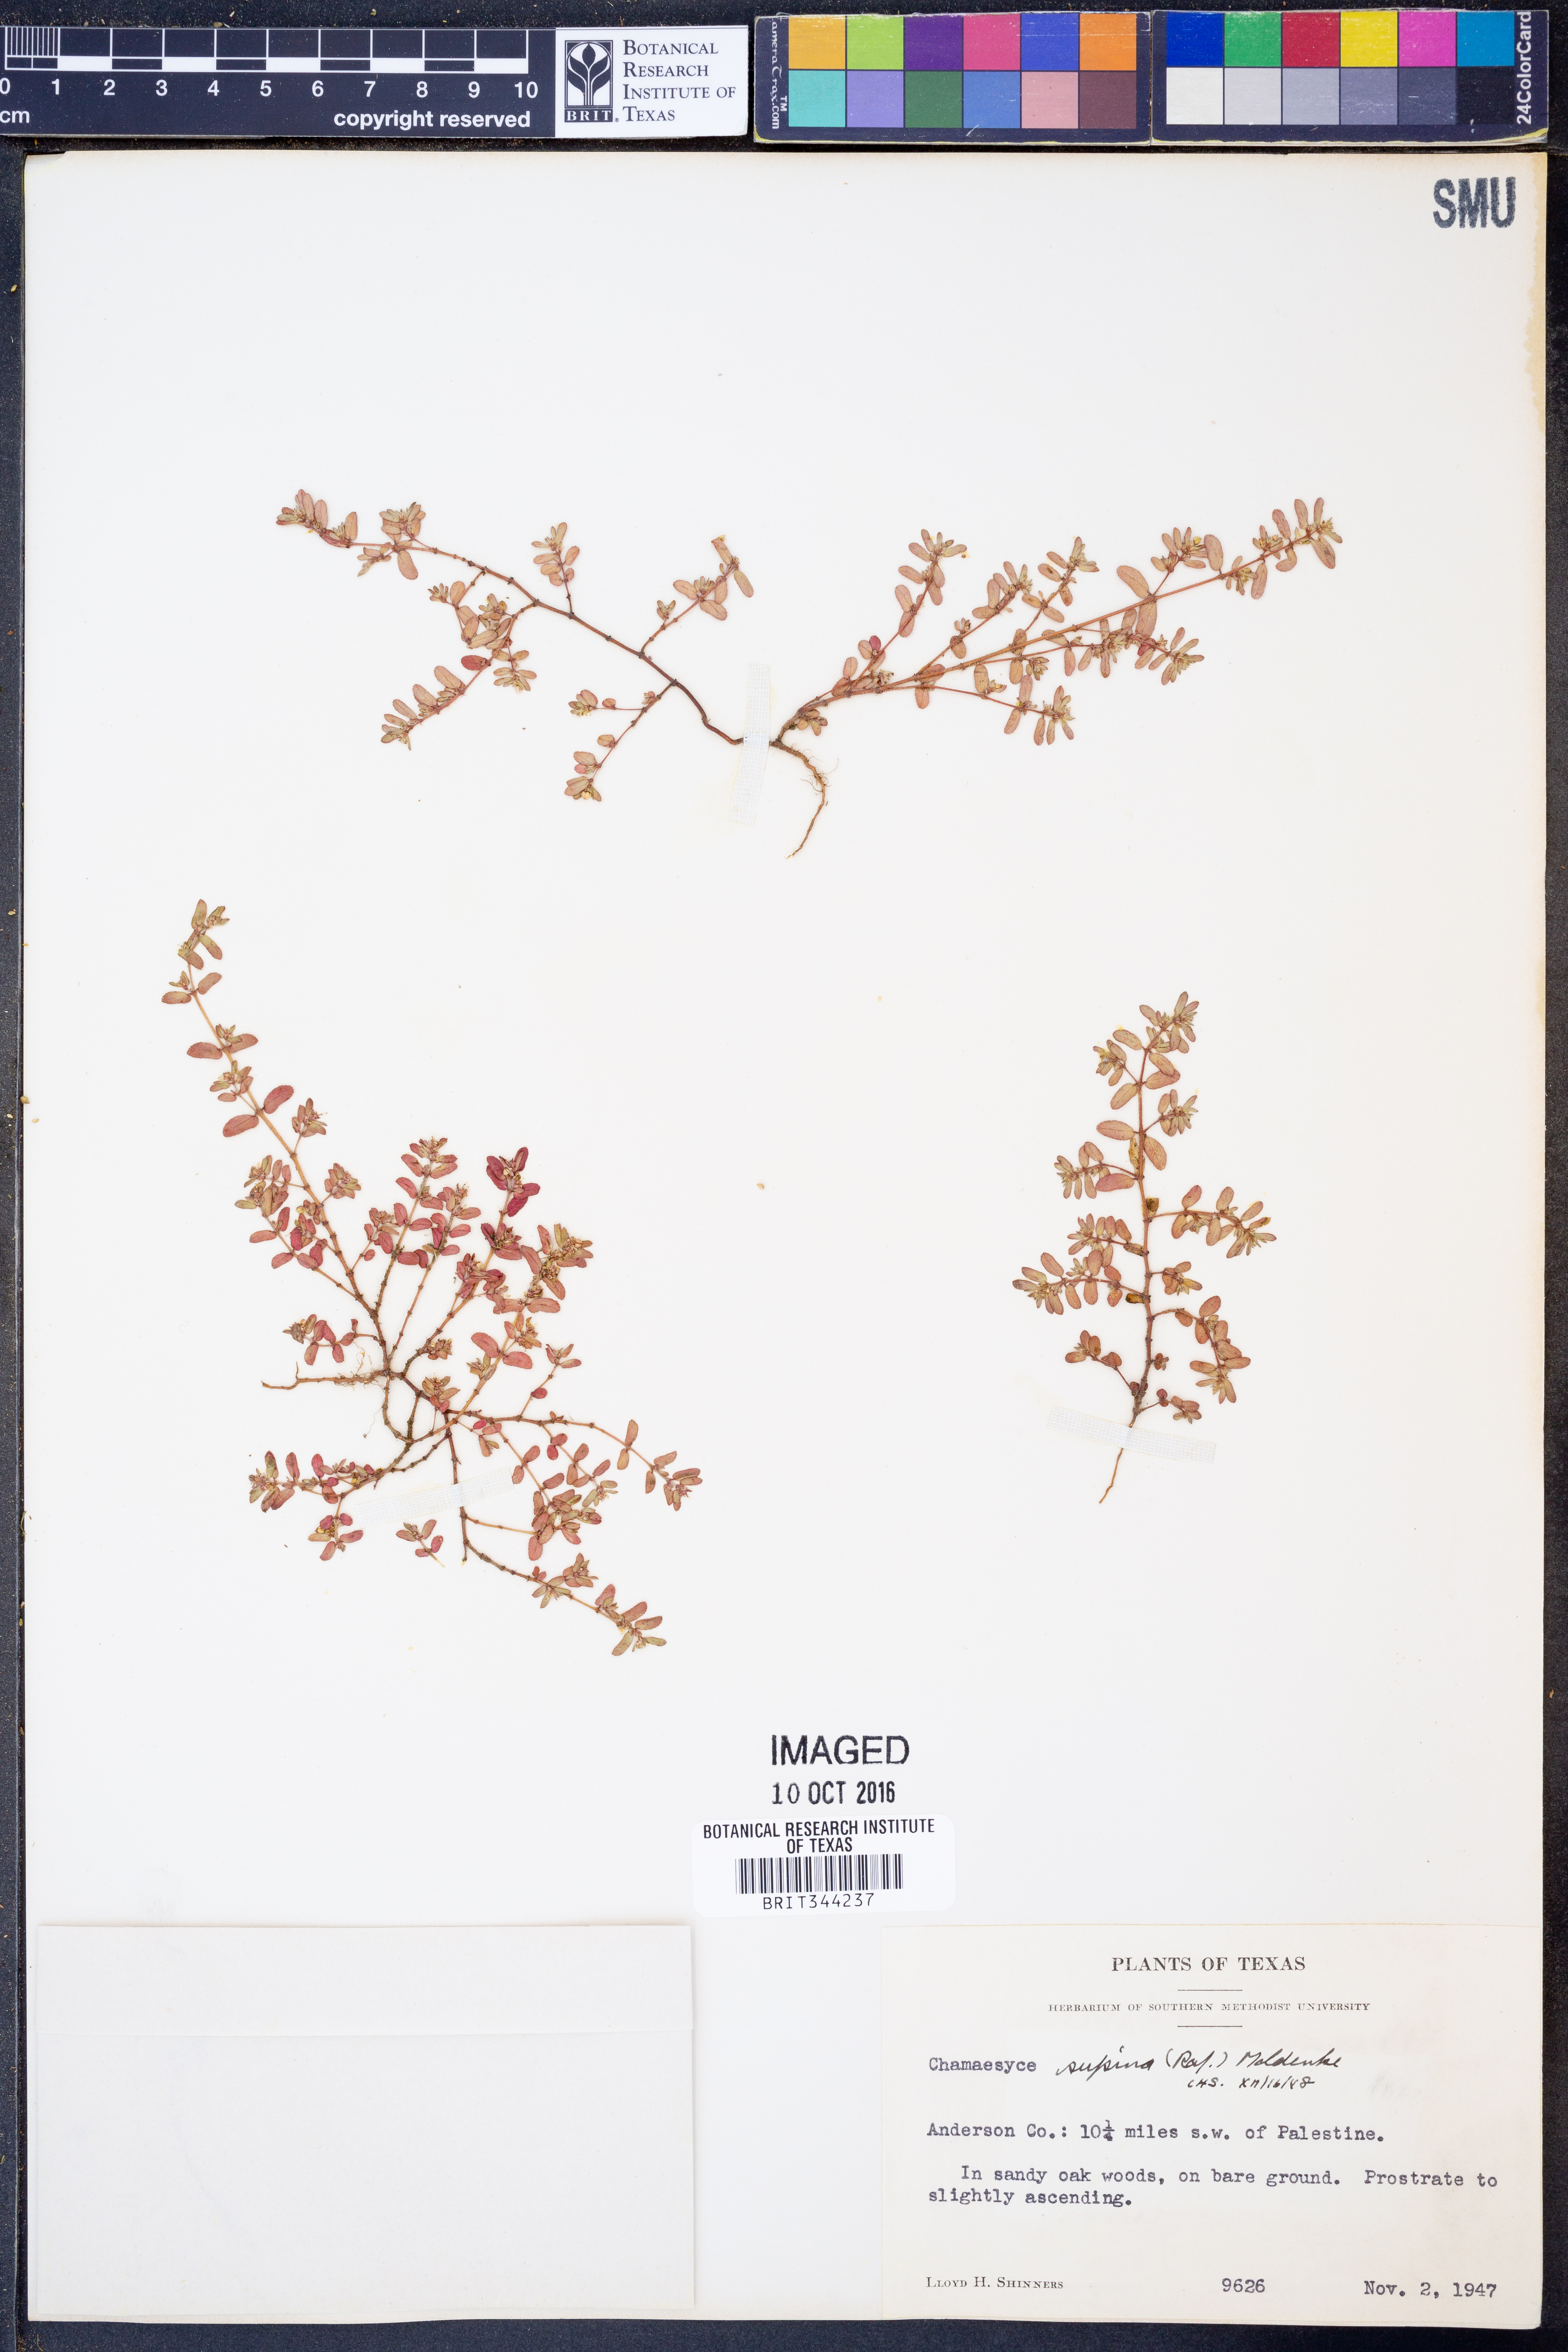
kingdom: Plantae
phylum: Tracheophyta
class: Magnoliopsida
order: Malpighiales
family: Euphorbiaceae
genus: Euphorbia
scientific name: Euphorbia maculata
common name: Spotted spurge
